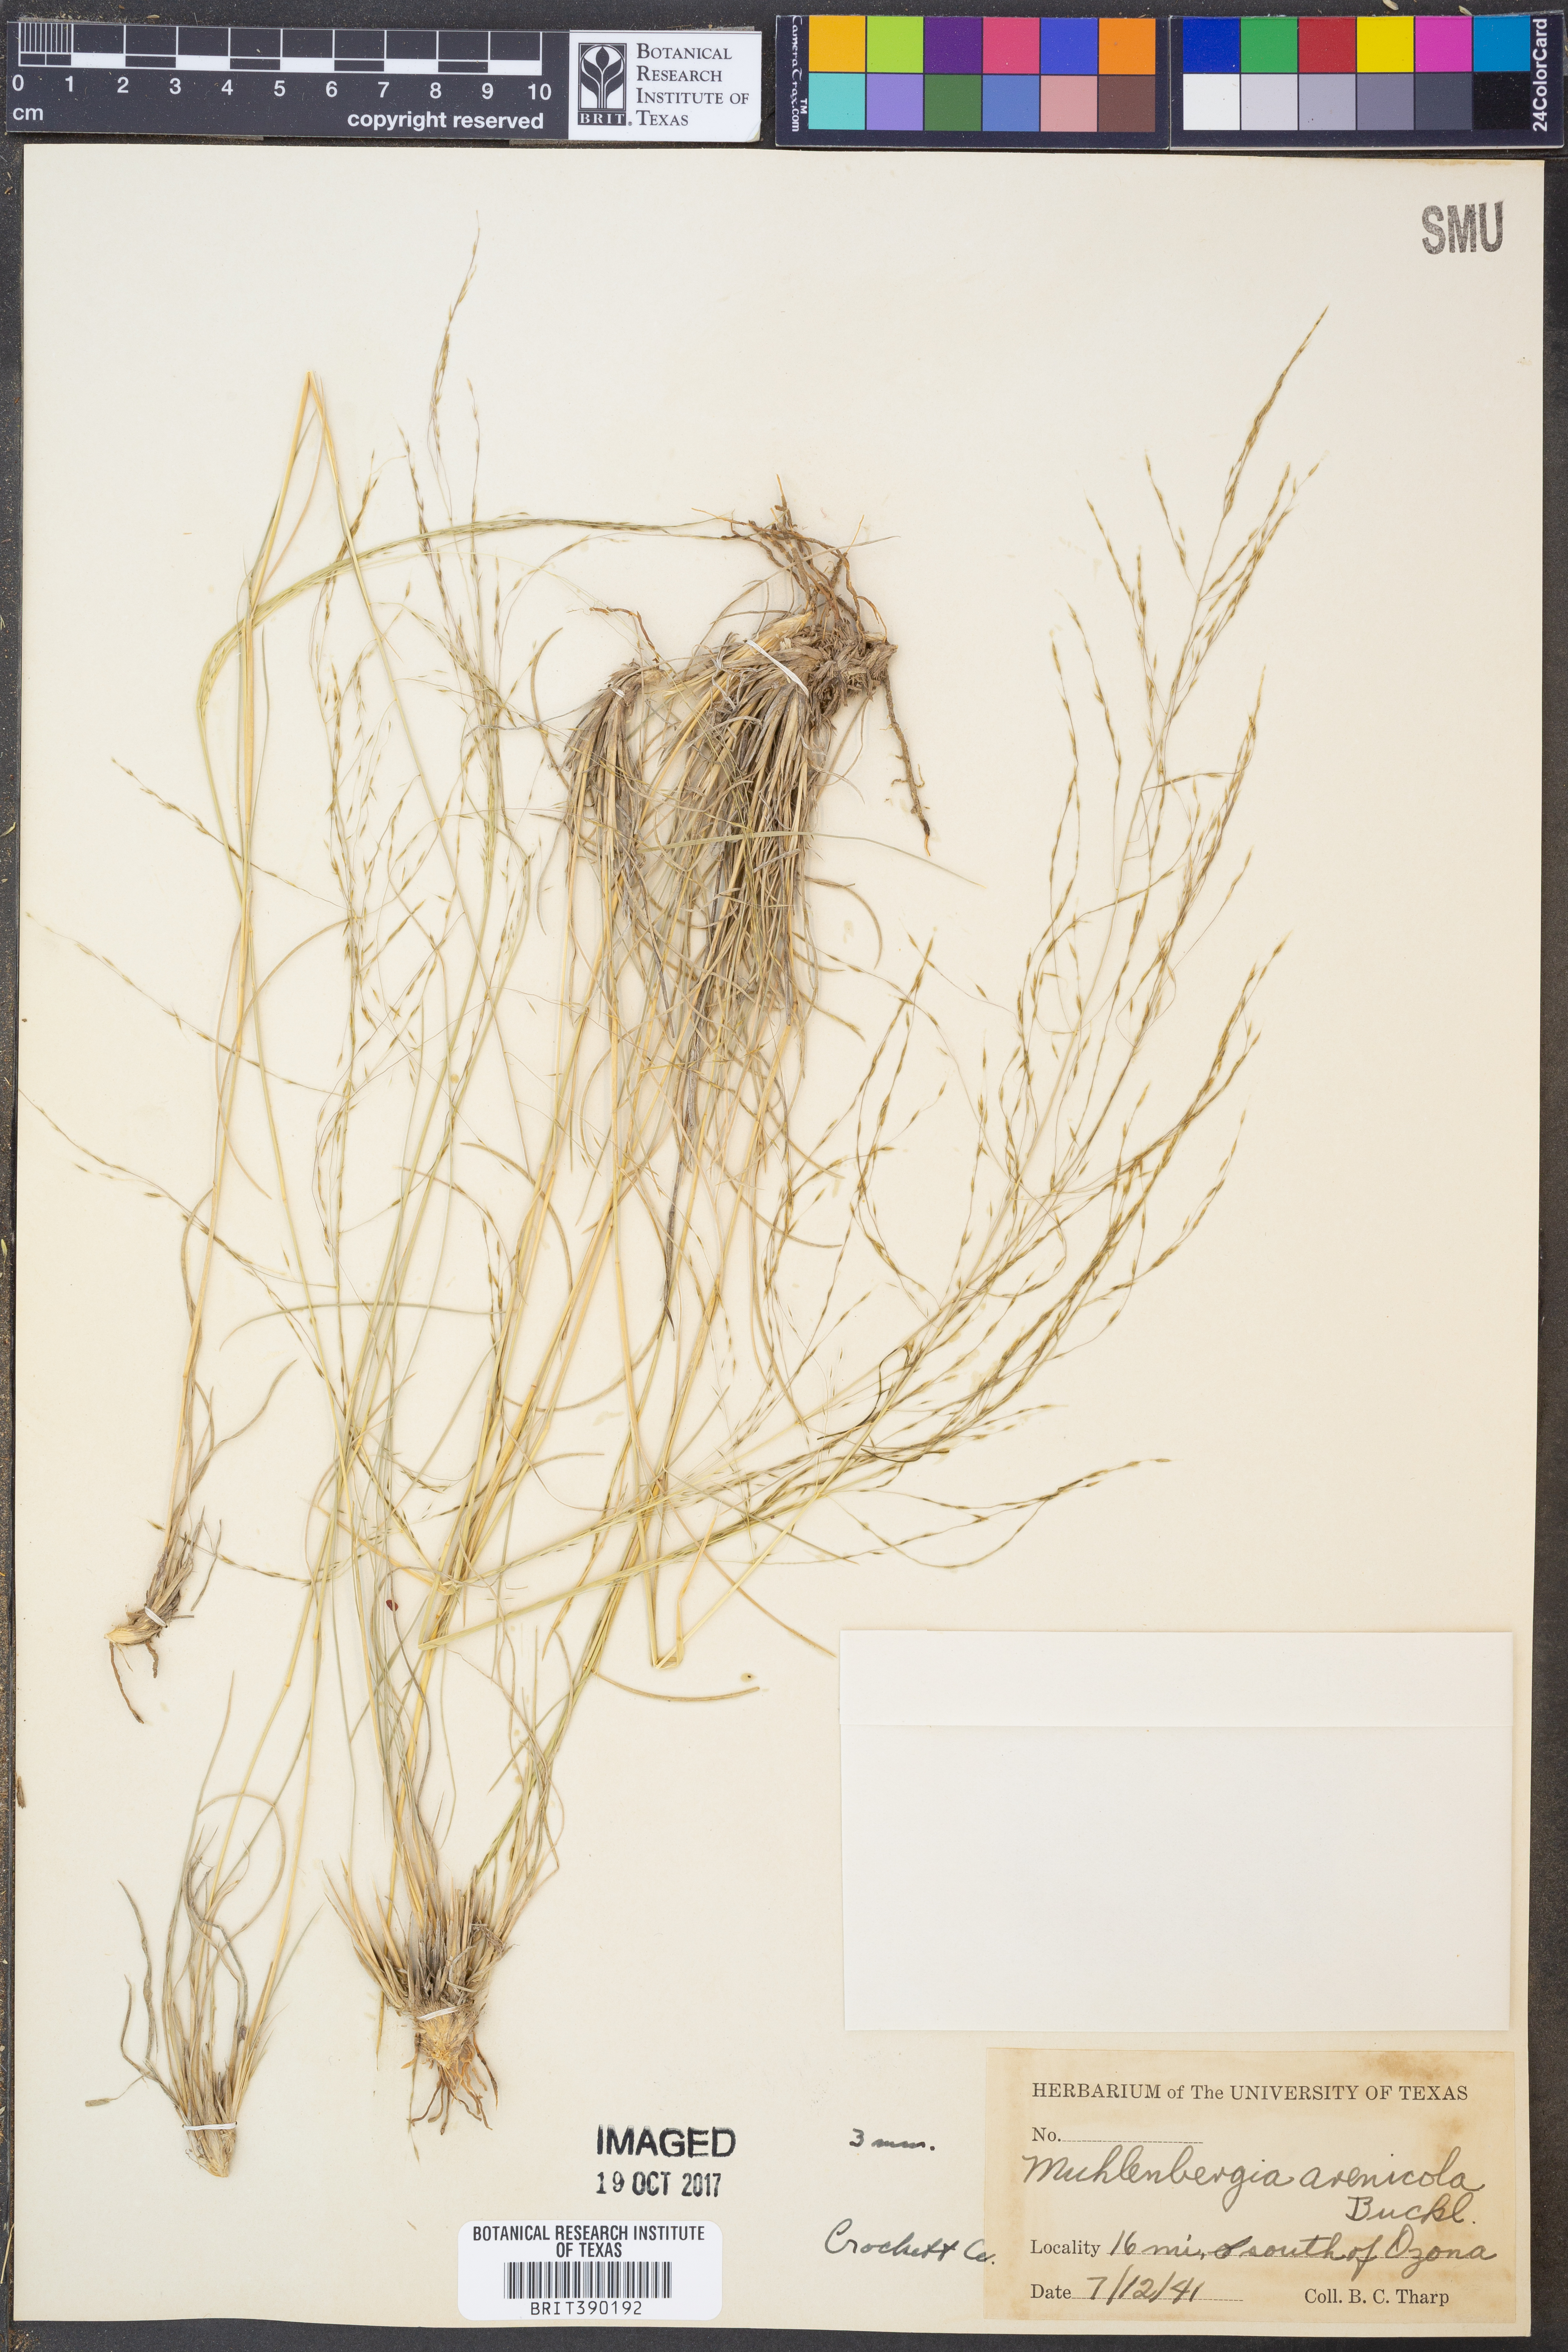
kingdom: Plantae
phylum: Tracheophyta
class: Liliopsida
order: Poales
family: Poaceae
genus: Muhlenbergia
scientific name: Muhlenbergia arenicola
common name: Sand muhly
